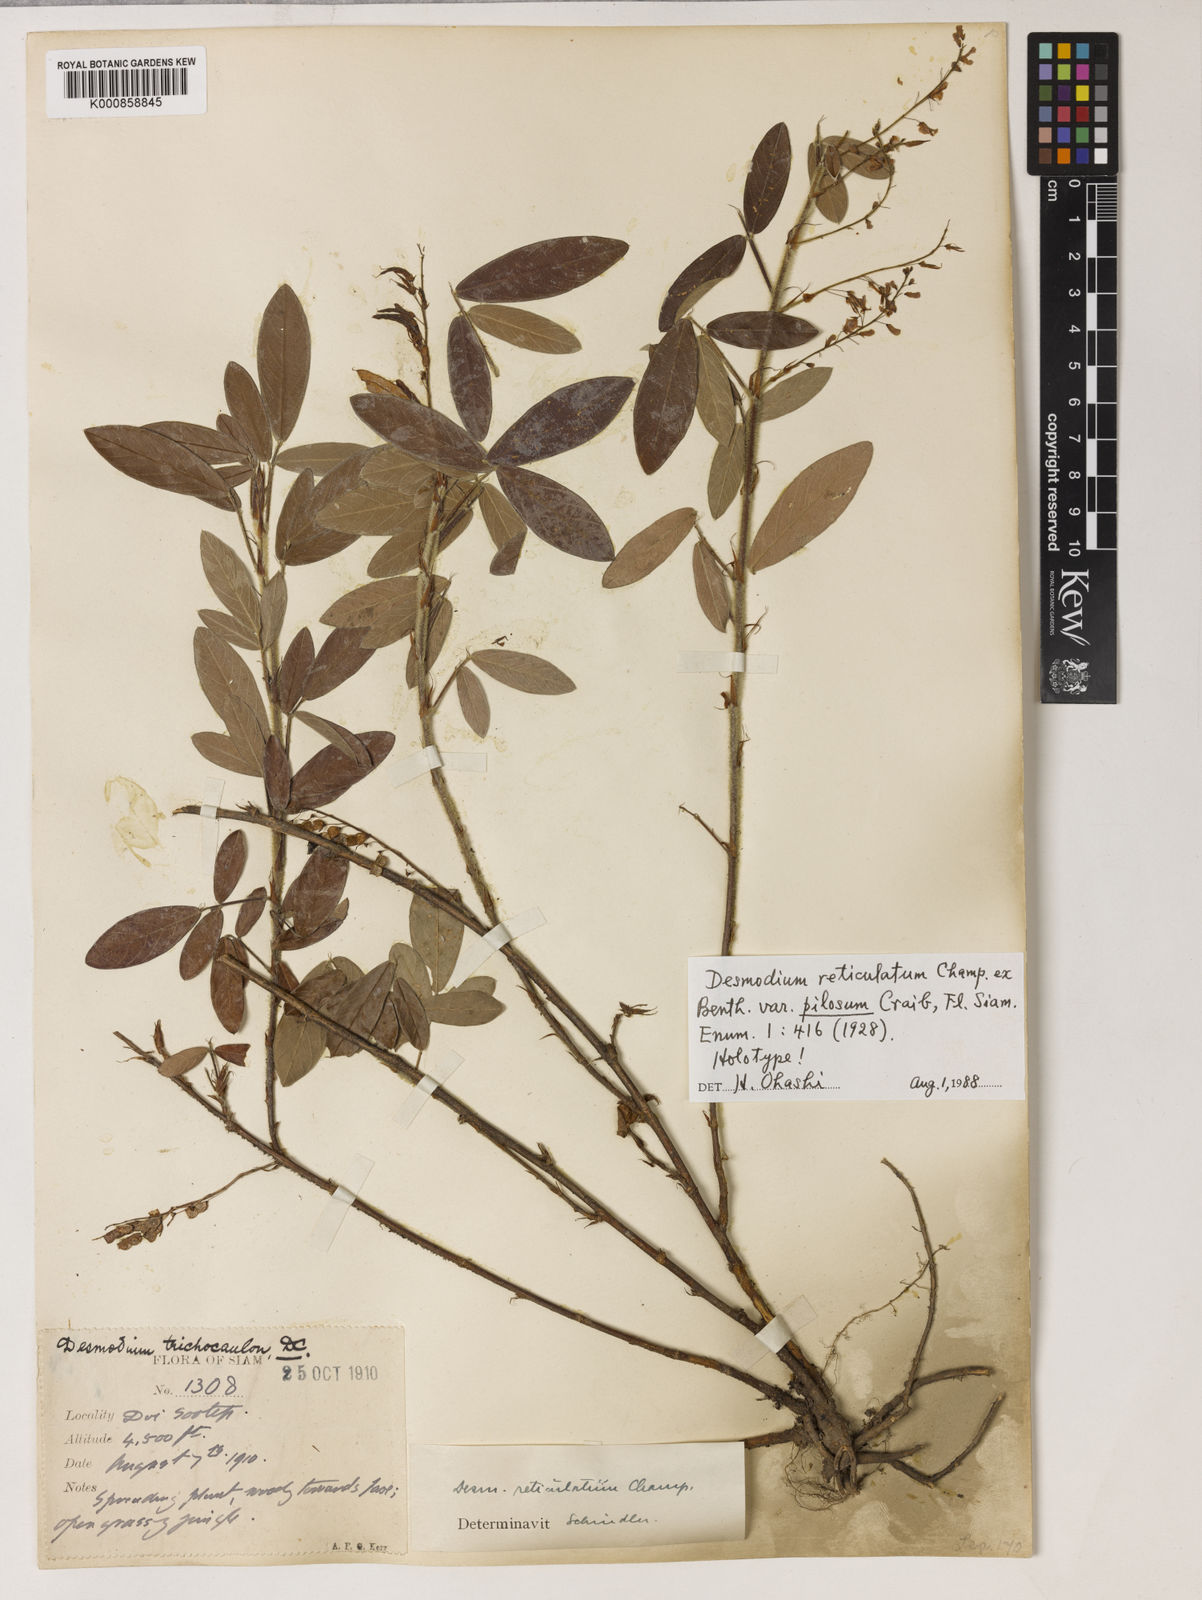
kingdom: Plantae
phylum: Tracheophyta
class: Magnoliopsida
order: Fabales
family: Fabaceae
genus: Grona
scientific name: Grona reticulata
